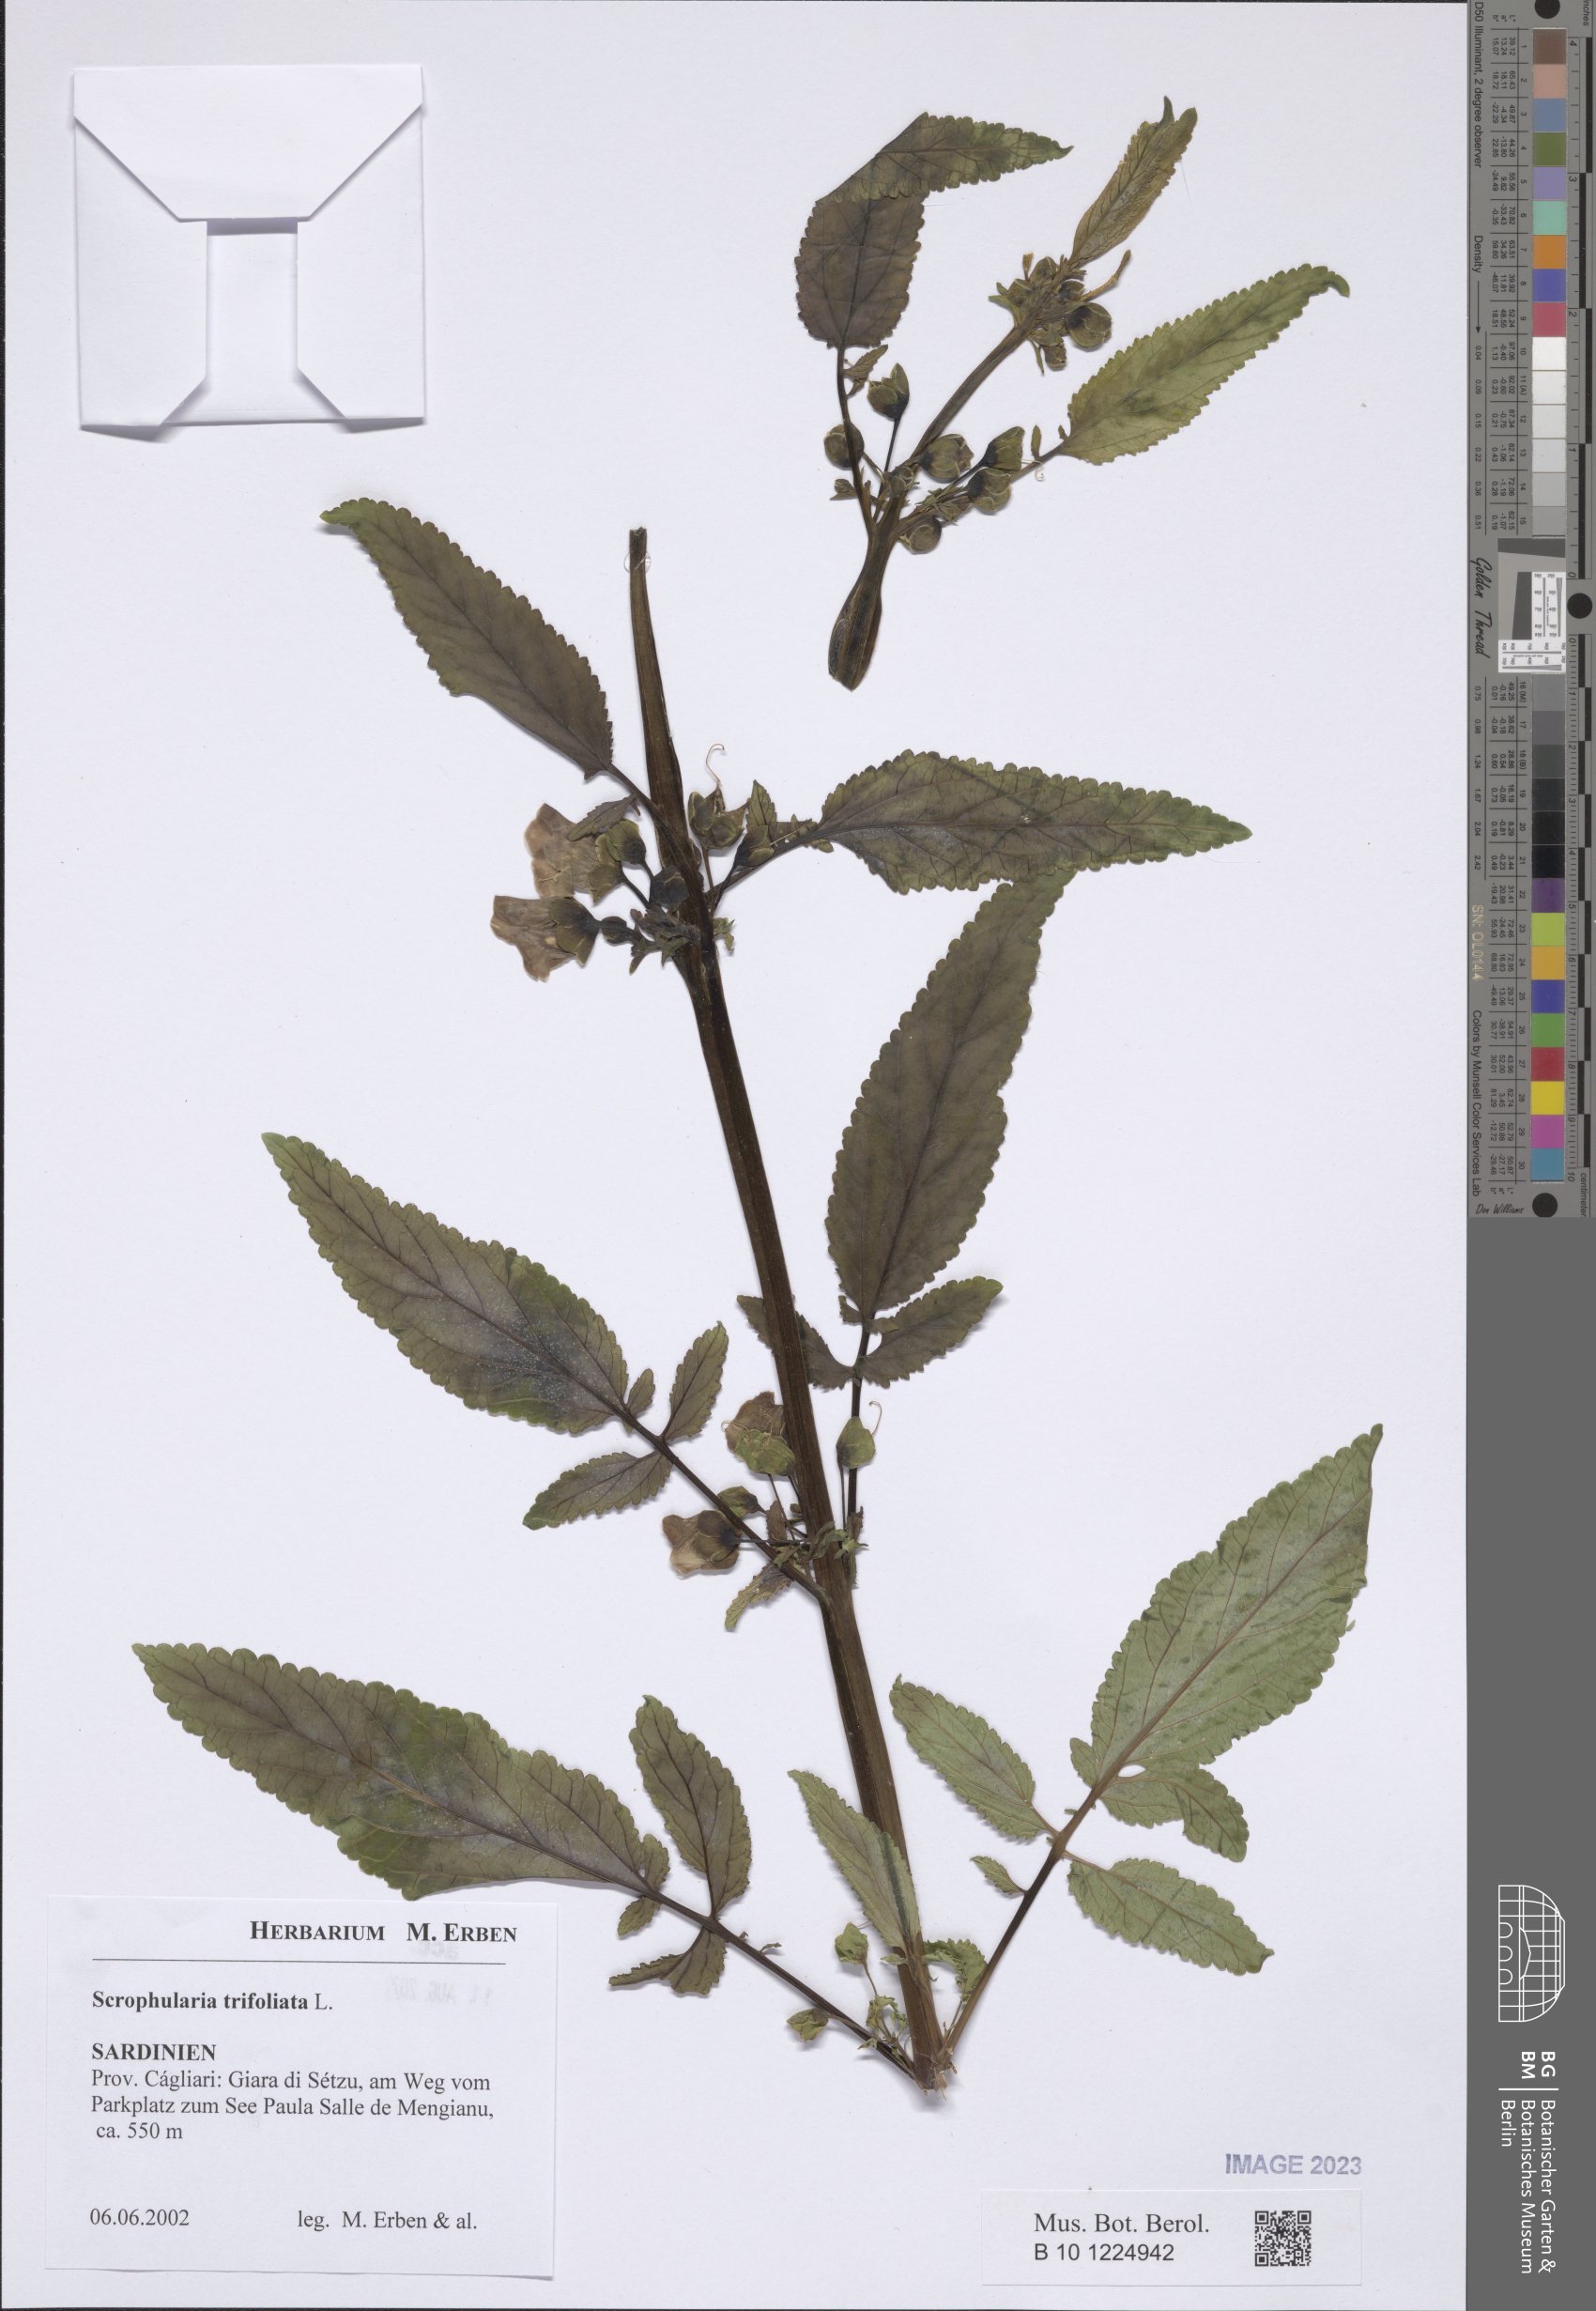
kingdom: Plantae
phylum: Tracheophyta
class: Magnoliopsida
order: Lamiales
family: Scrophulariaceae
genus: Scrophularia
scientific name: Scrophularia trifoliata
